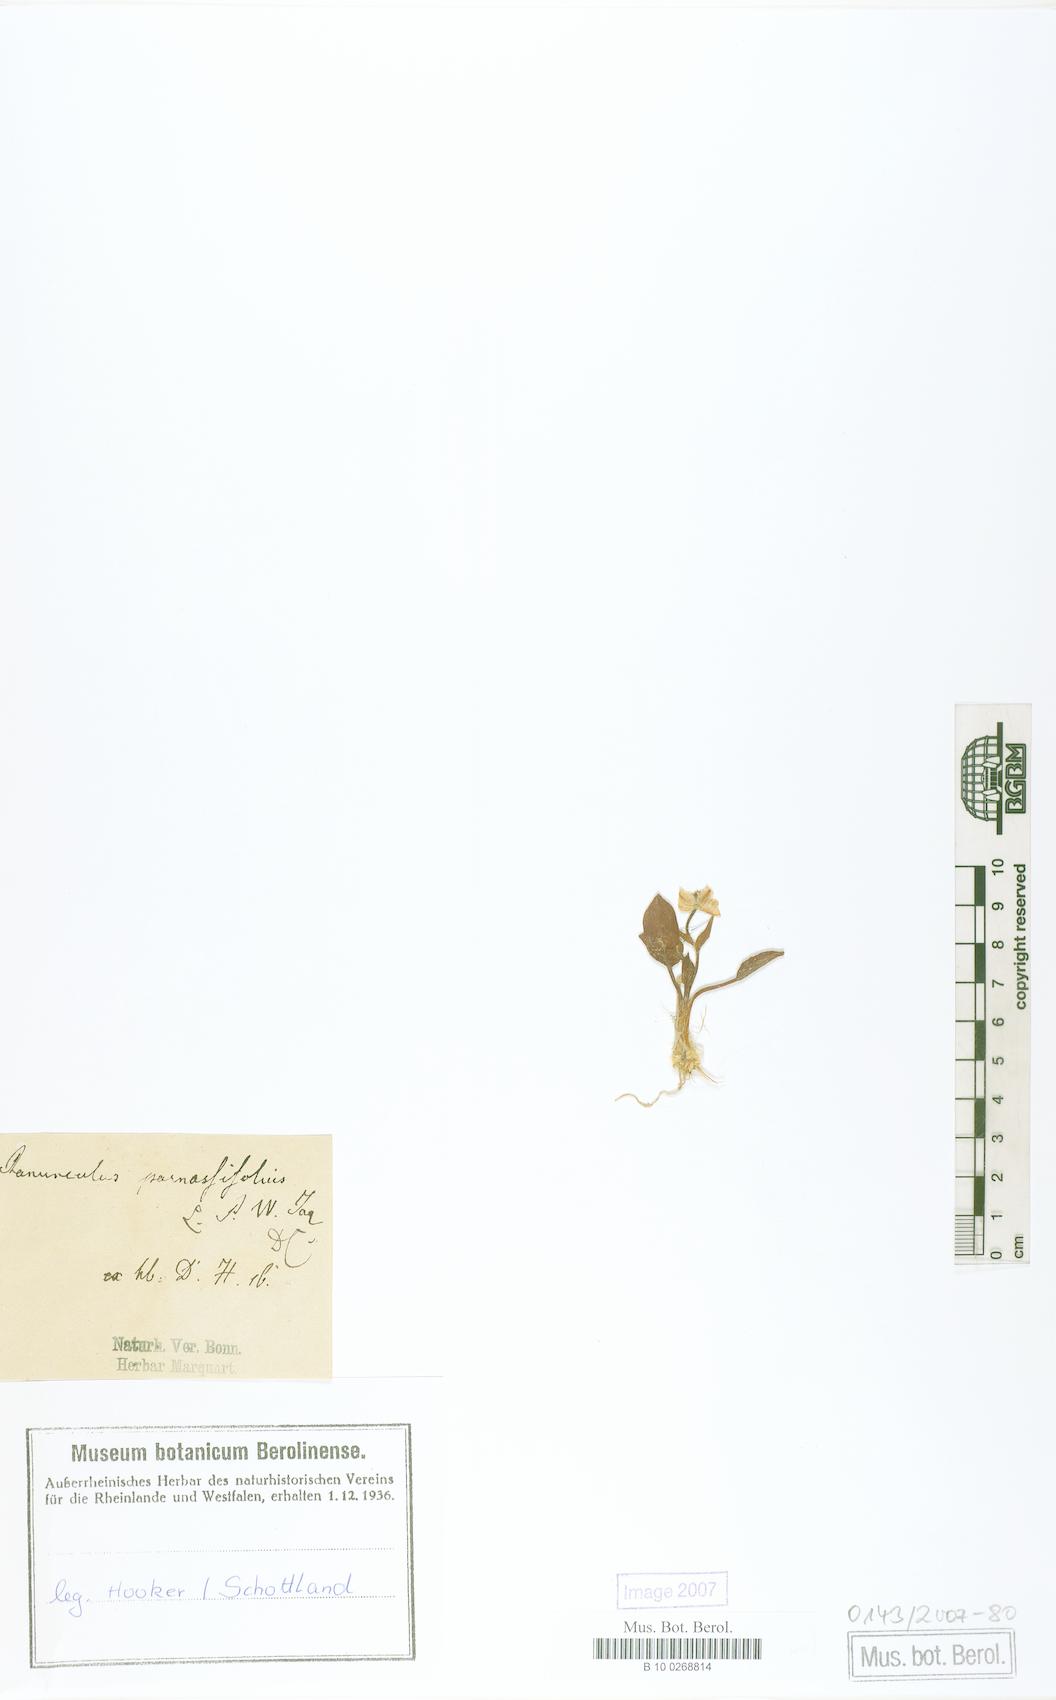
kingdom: Plantae
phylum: Tracheophyta
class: Magnoliopsida
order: Ranunculales
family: Ranunculaceae
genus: Ranunculus
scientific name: Ranunculus parnassiifolius
